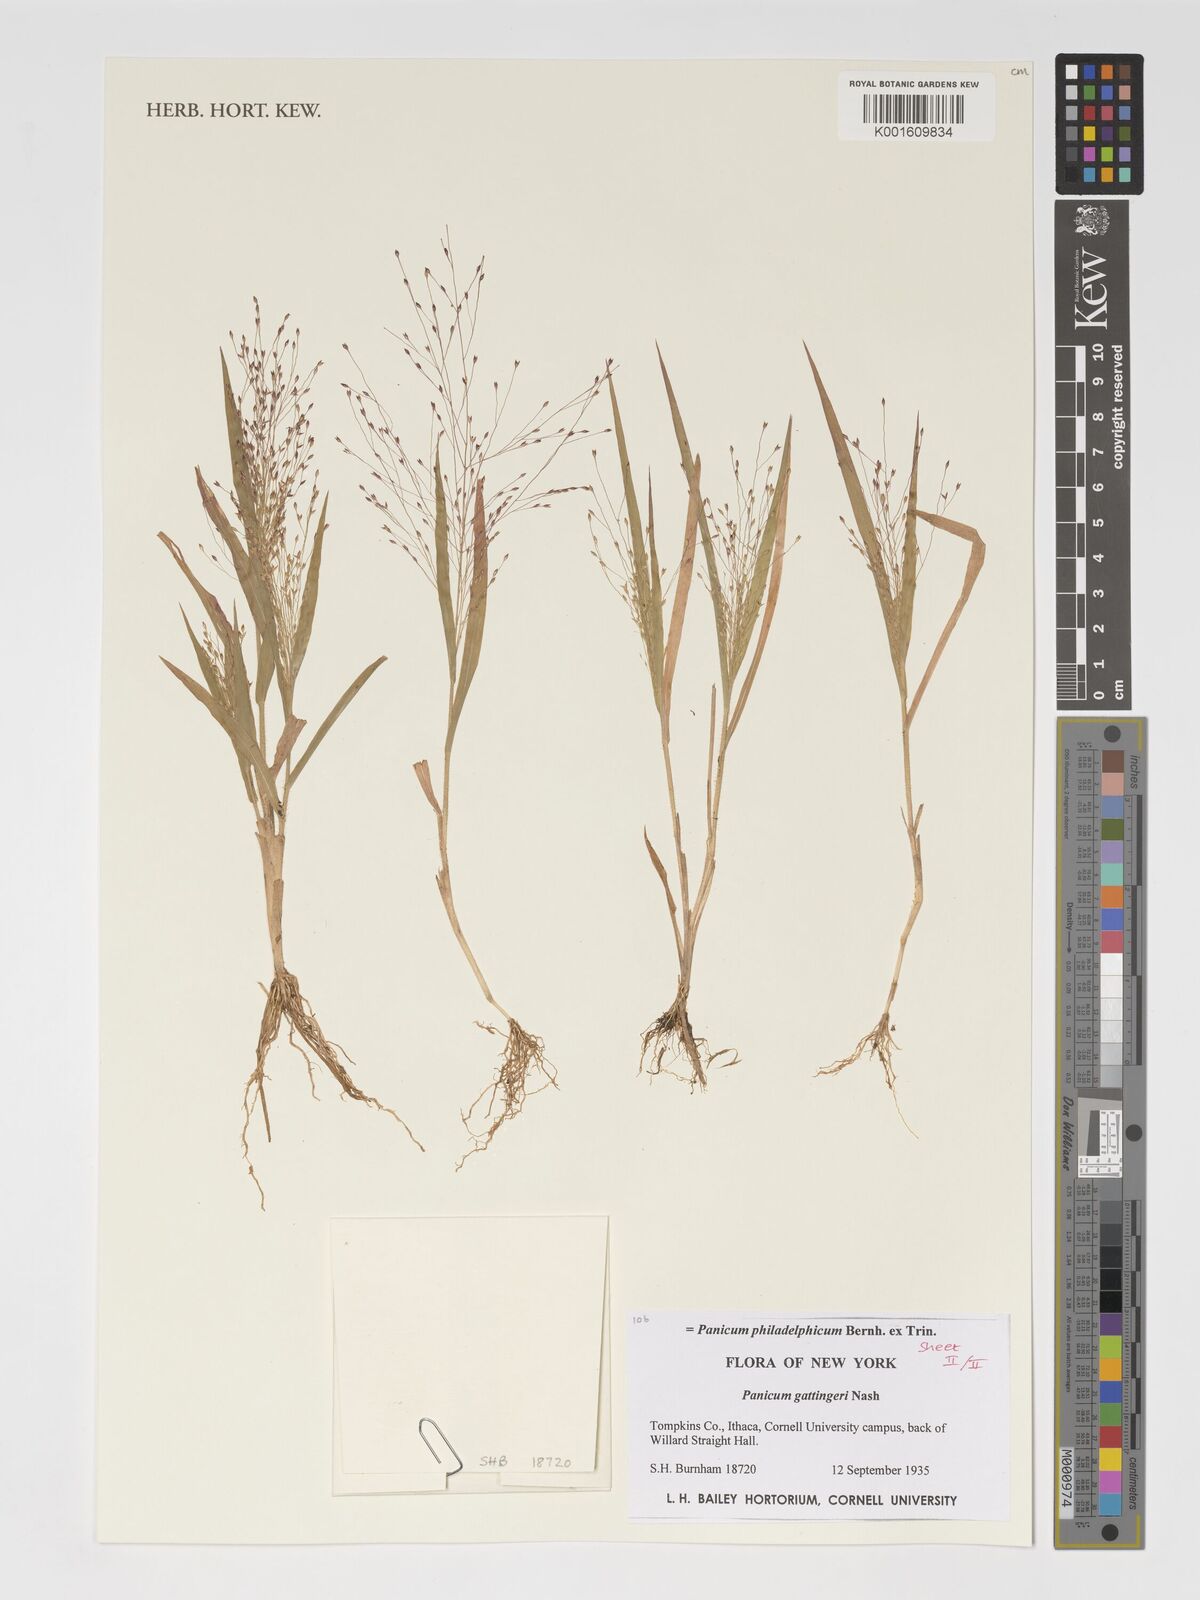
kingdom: Plantae
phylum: Tracheophyta
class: Liliopsida
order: Poales
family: Poaceae
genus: Panicum
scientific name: Panicum philadelphicum
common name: Philadelphia witchgrass
